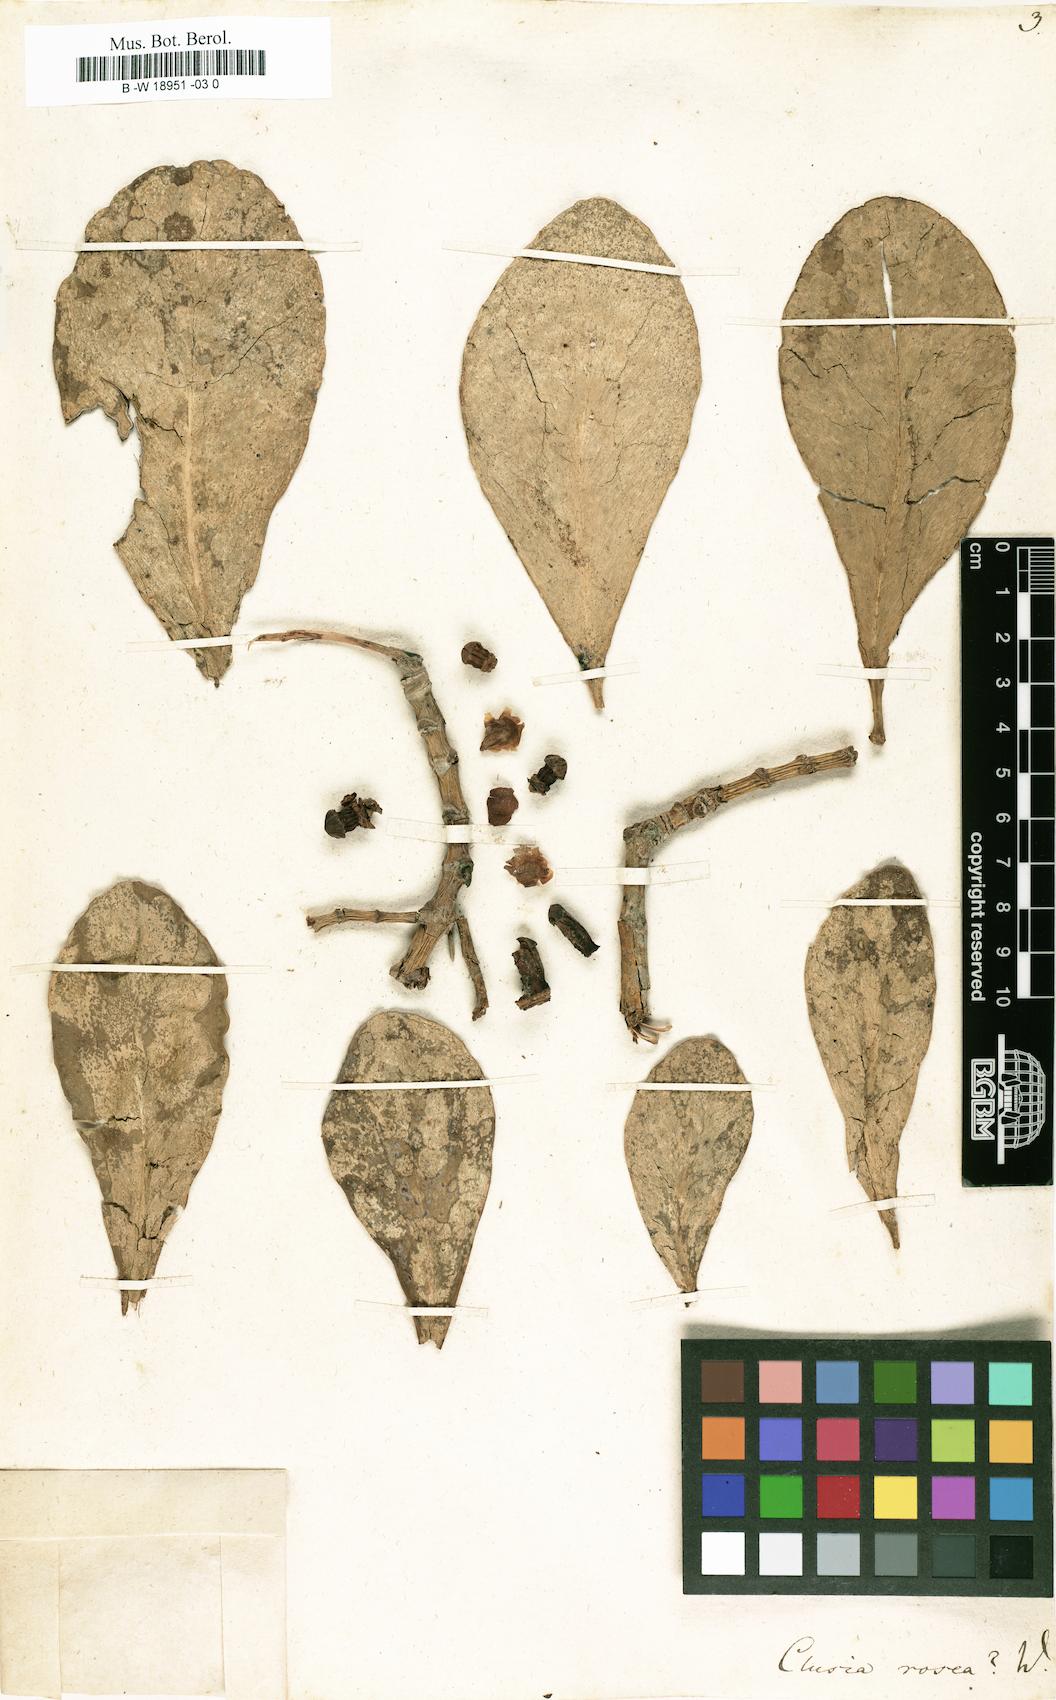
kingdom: Plantae
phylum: Tracheophyta
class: Magnoliopsida
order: Malpighiales
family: Clusiaceae
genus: Clusia
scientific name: Clusia rosea
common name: Scotch attorney
